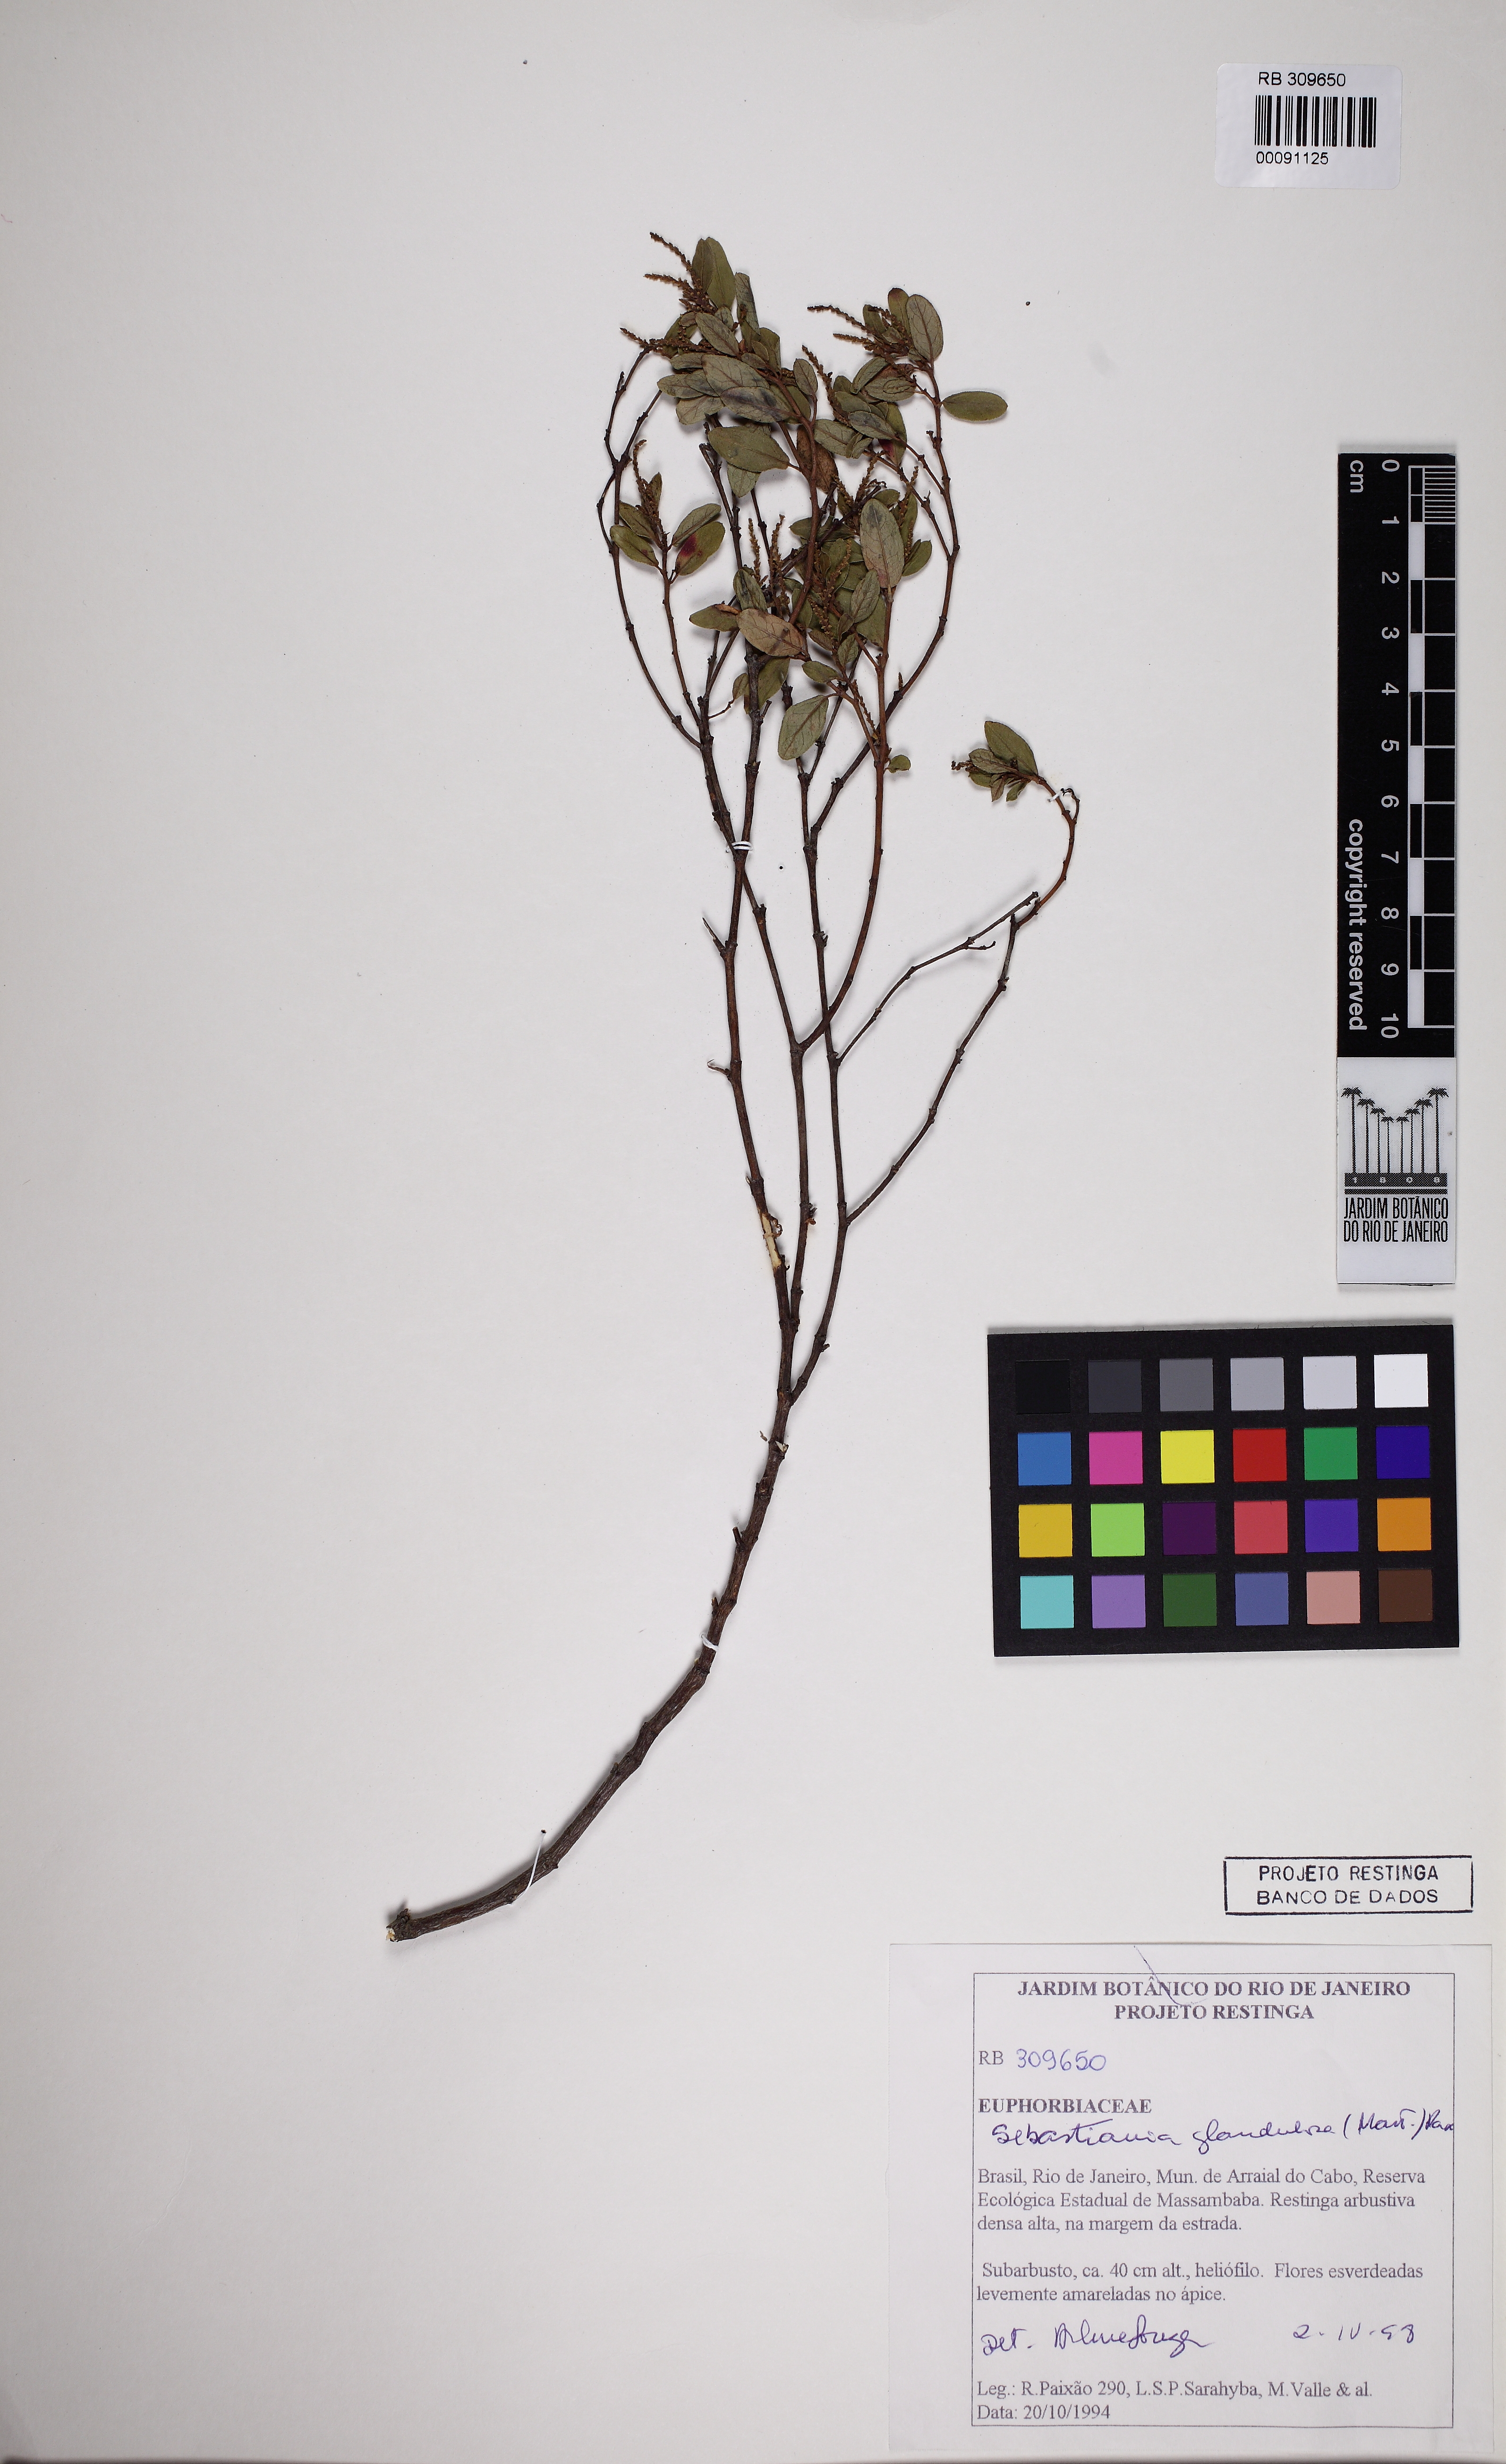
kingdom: Plantae
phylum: Tracheophyta
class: Magnoliopsida
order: Malpighiales
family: Euphorbiaceae
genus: Microstachys
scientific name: Microstachys corniculata
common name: Hato tejas
